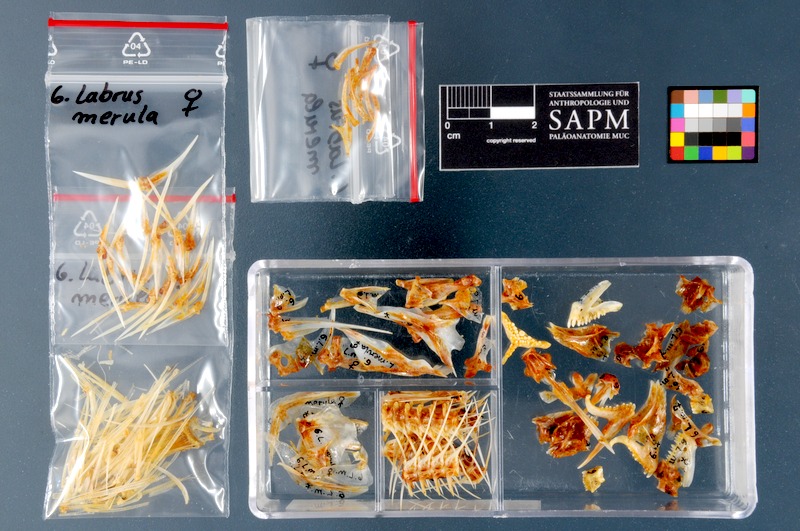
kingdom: Animalia
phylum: Chordata
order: Perciformes
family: Labridae
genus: Labrus
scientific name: Labrus merula
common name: Brown wrasse
